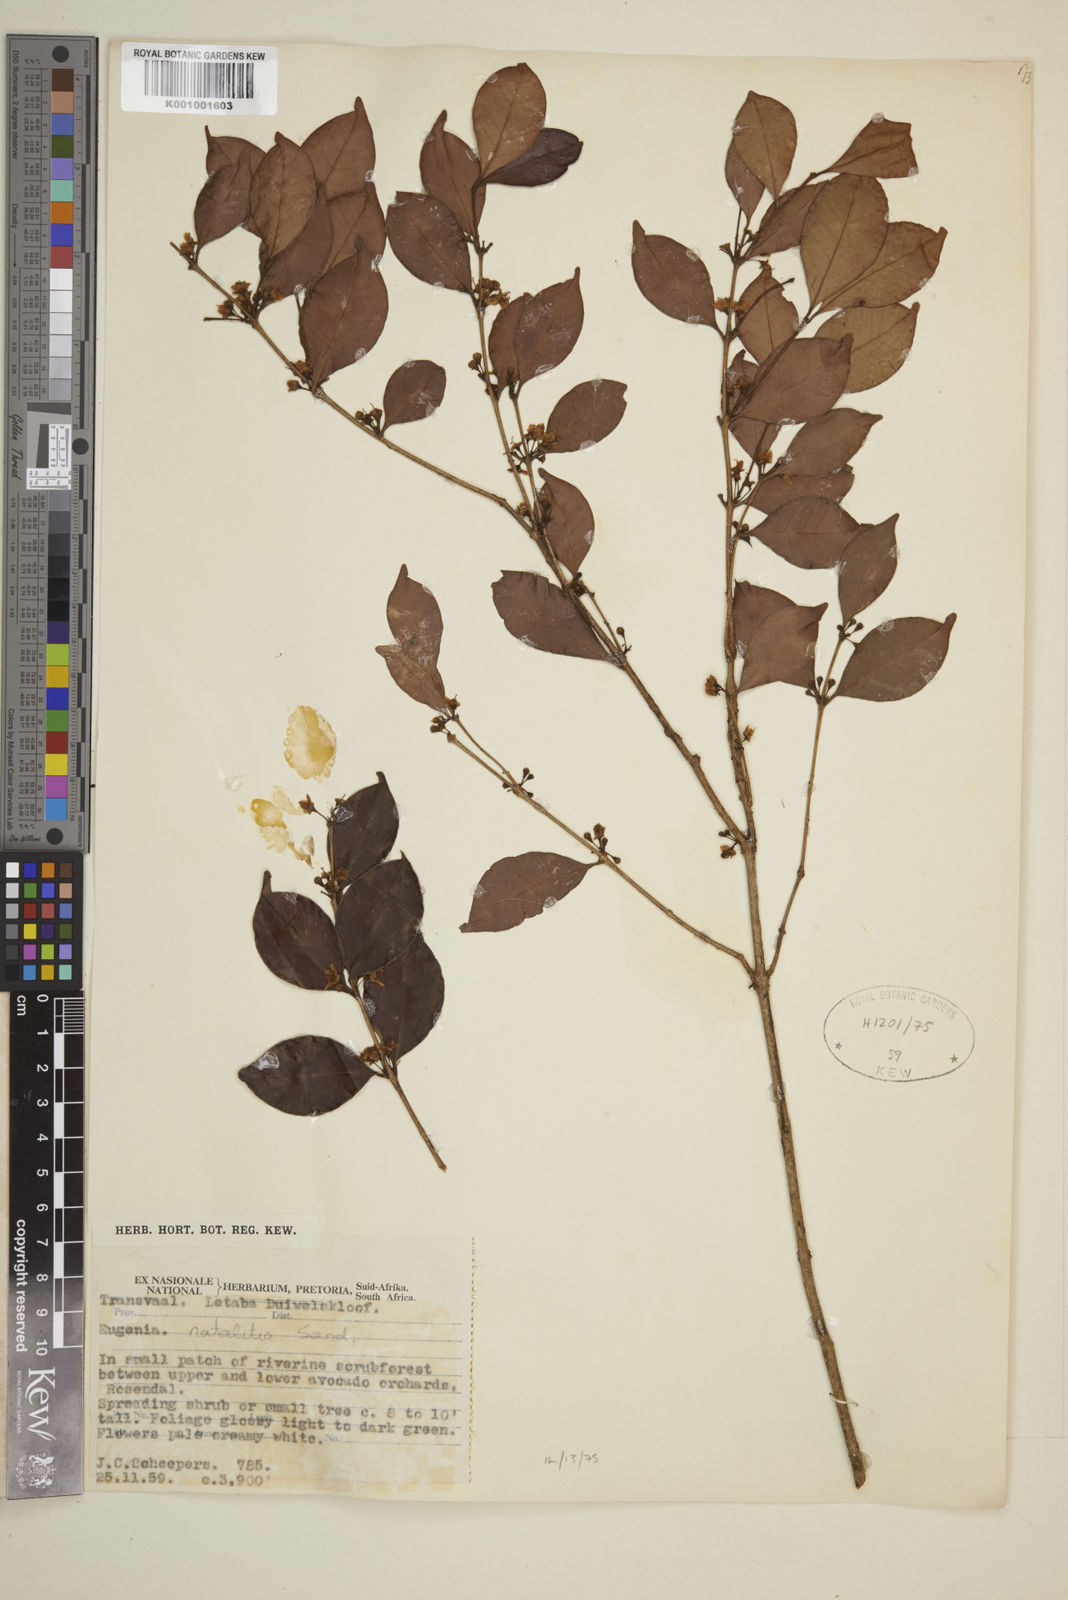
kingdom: Plantae
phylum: Tracheophyta
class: Magnoliopsida
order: Myrtales
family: Myrtaceae
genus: Eugenia
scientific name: Eugenia natalitia
